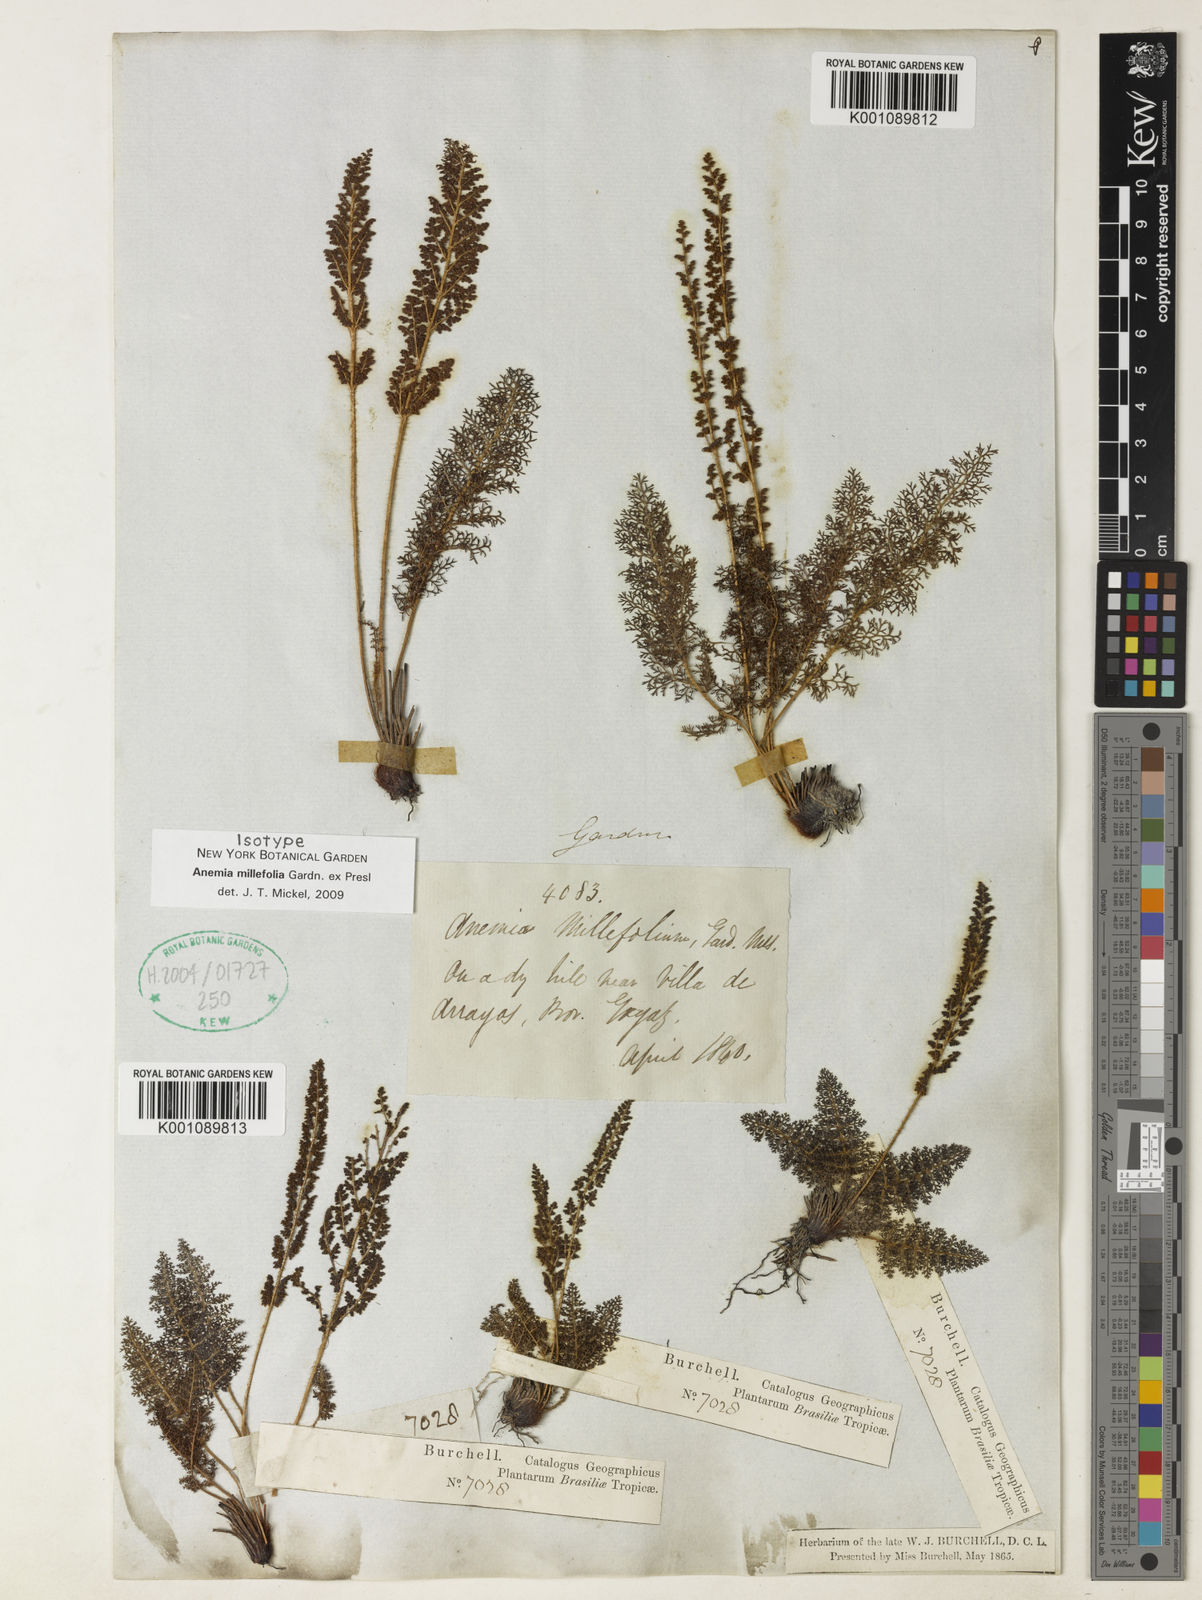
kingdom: Plantae
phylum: Tracheophyta
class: Polypodiopsida
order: Schizaeales
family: Anemiaceae
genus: Anemia
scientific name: Anemia millefolia
